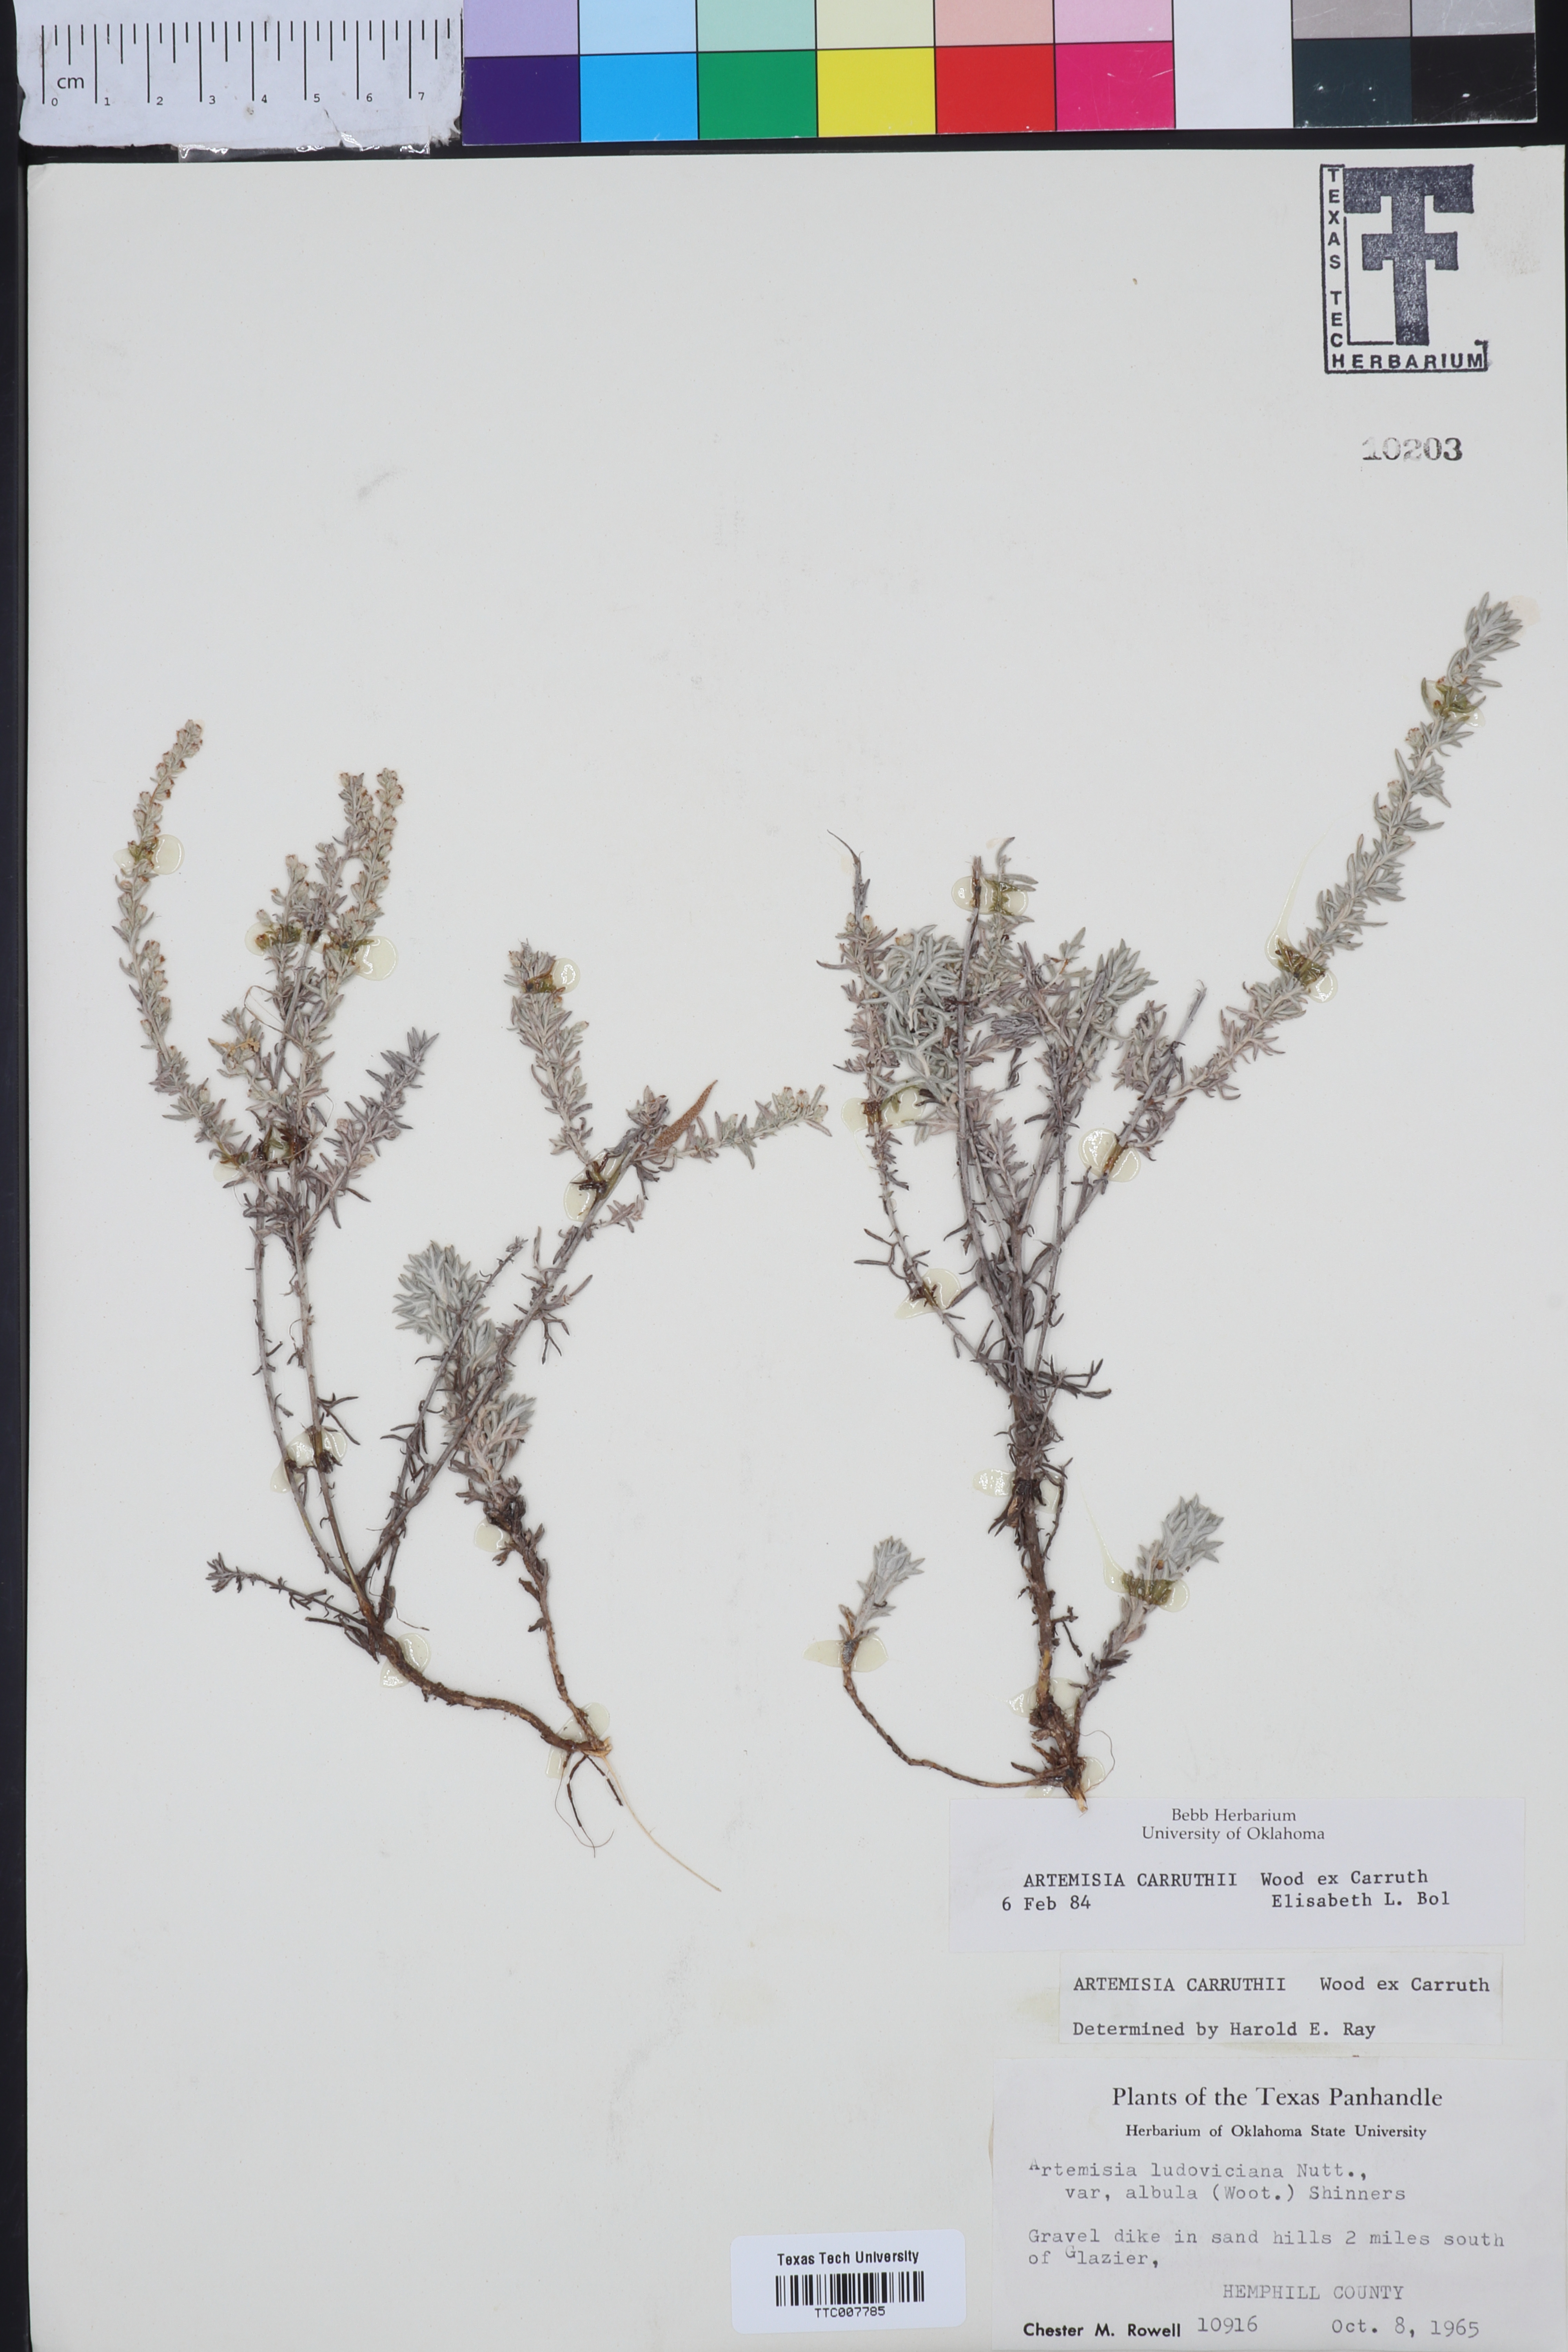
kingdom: Plantae
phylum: Tracheophyta
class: Magnoliopsida
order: Asterales
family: Asteraceae
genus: Artemisia
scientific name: Artemisia carruthii
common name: Carruth wormwood
